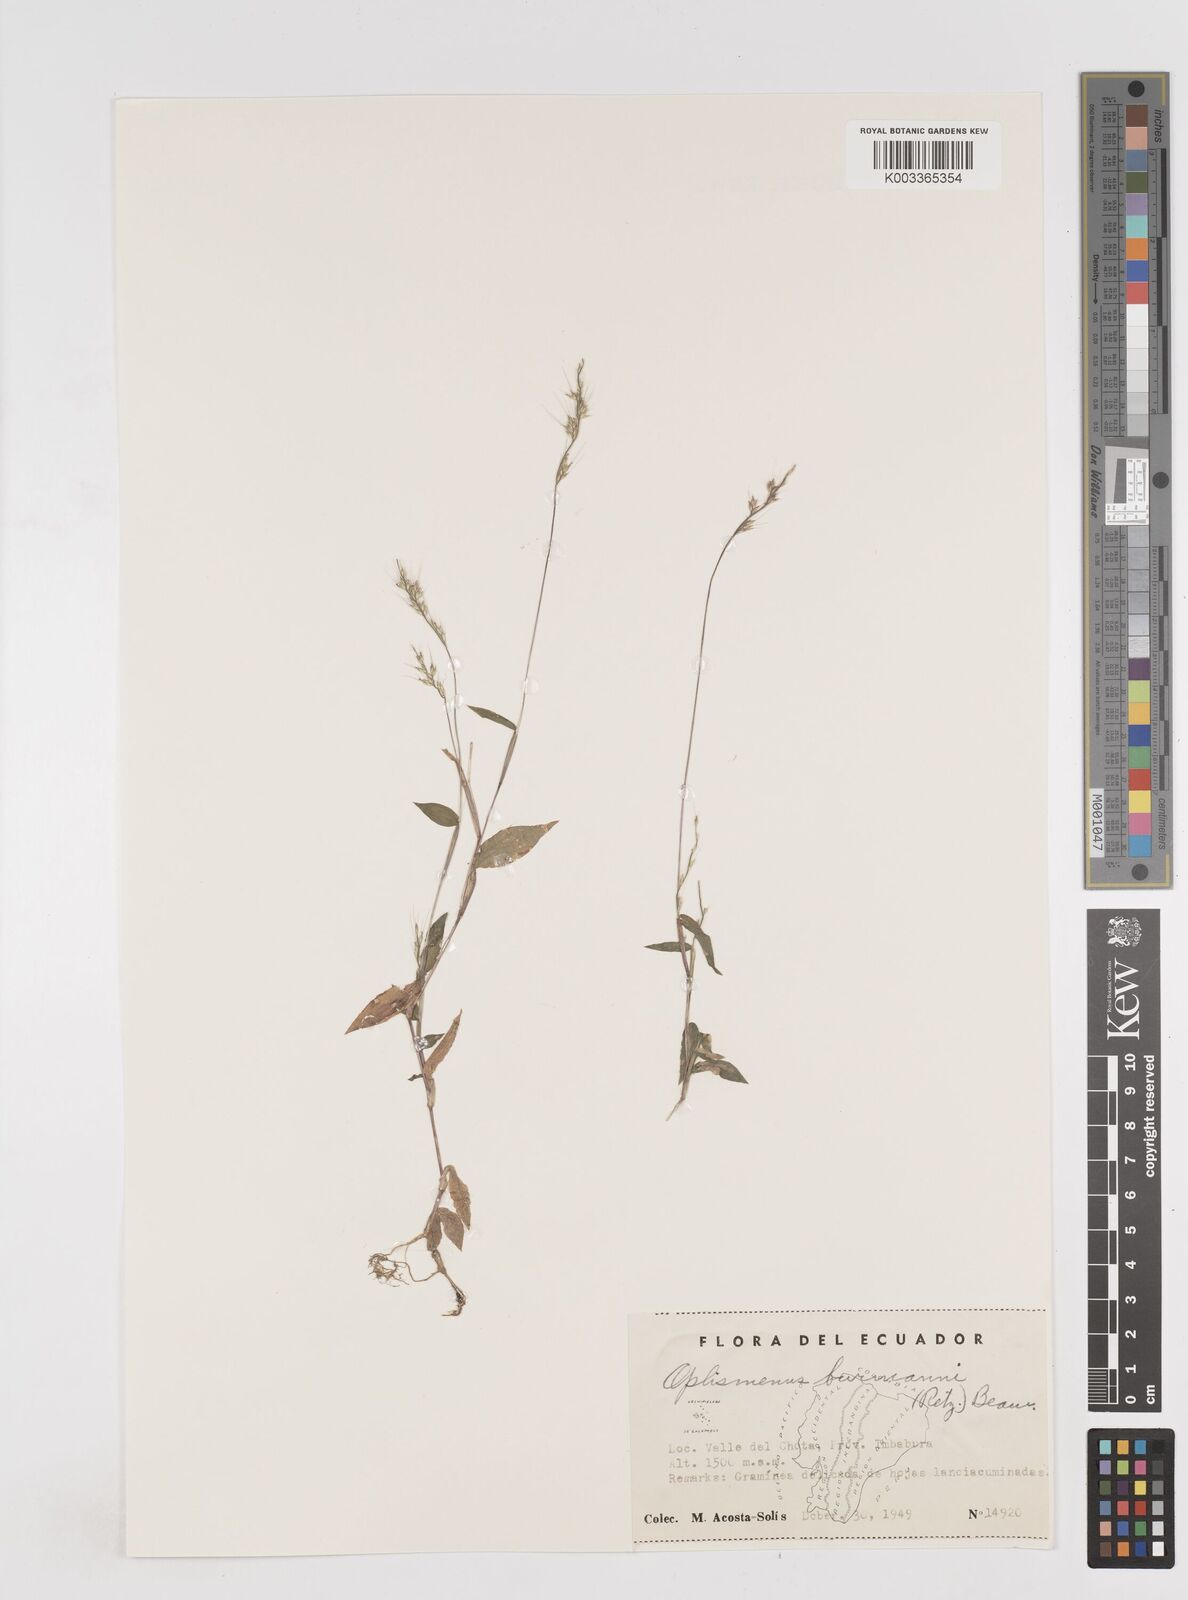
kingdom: Plantae
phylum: Tracheophyta
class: Liliopsida
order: Poales
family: Poaceae
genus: Oplismenus
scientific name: Oplismenus burmanni
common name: Burmann's basketgrass
